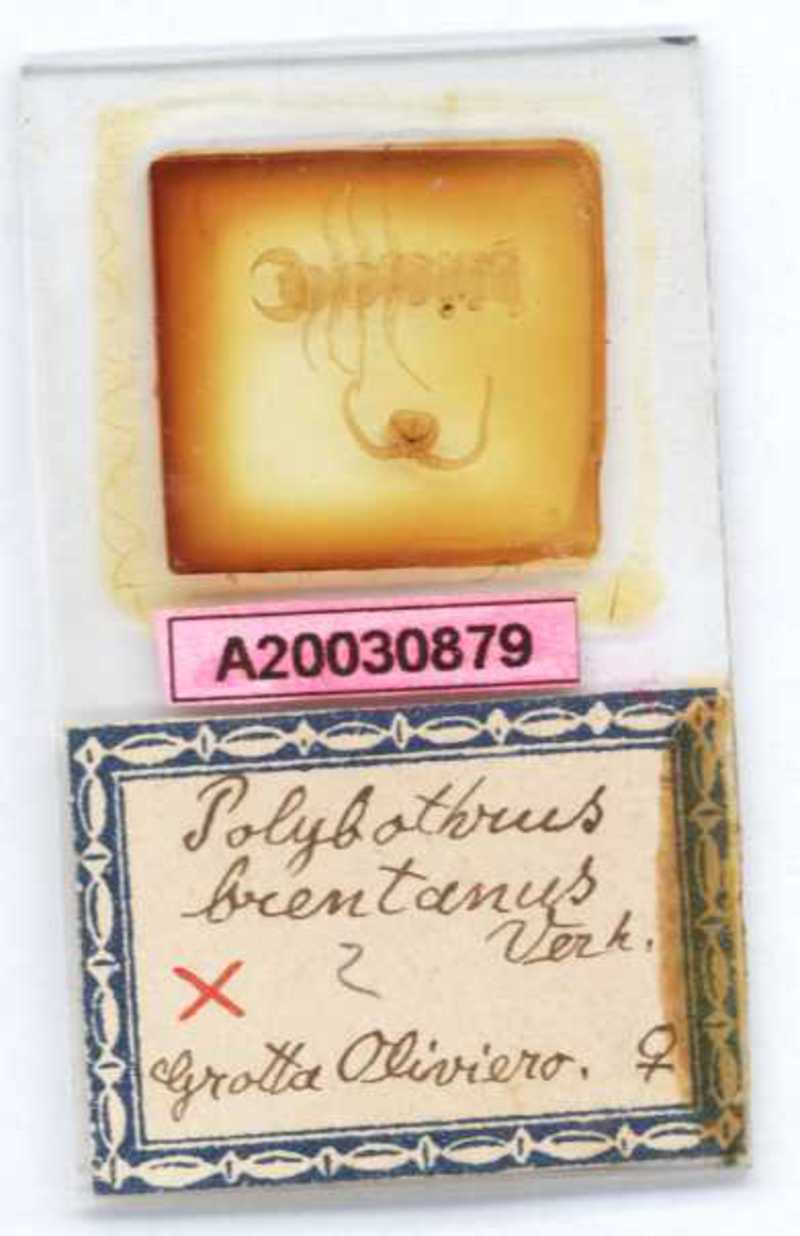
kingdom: Animalia
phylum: Arthropoda
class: Chilopoda
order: Lithobiomorpha
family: Lithobiidae
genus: Eupolybothrus
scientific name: Eupolybothrus tridentinus
